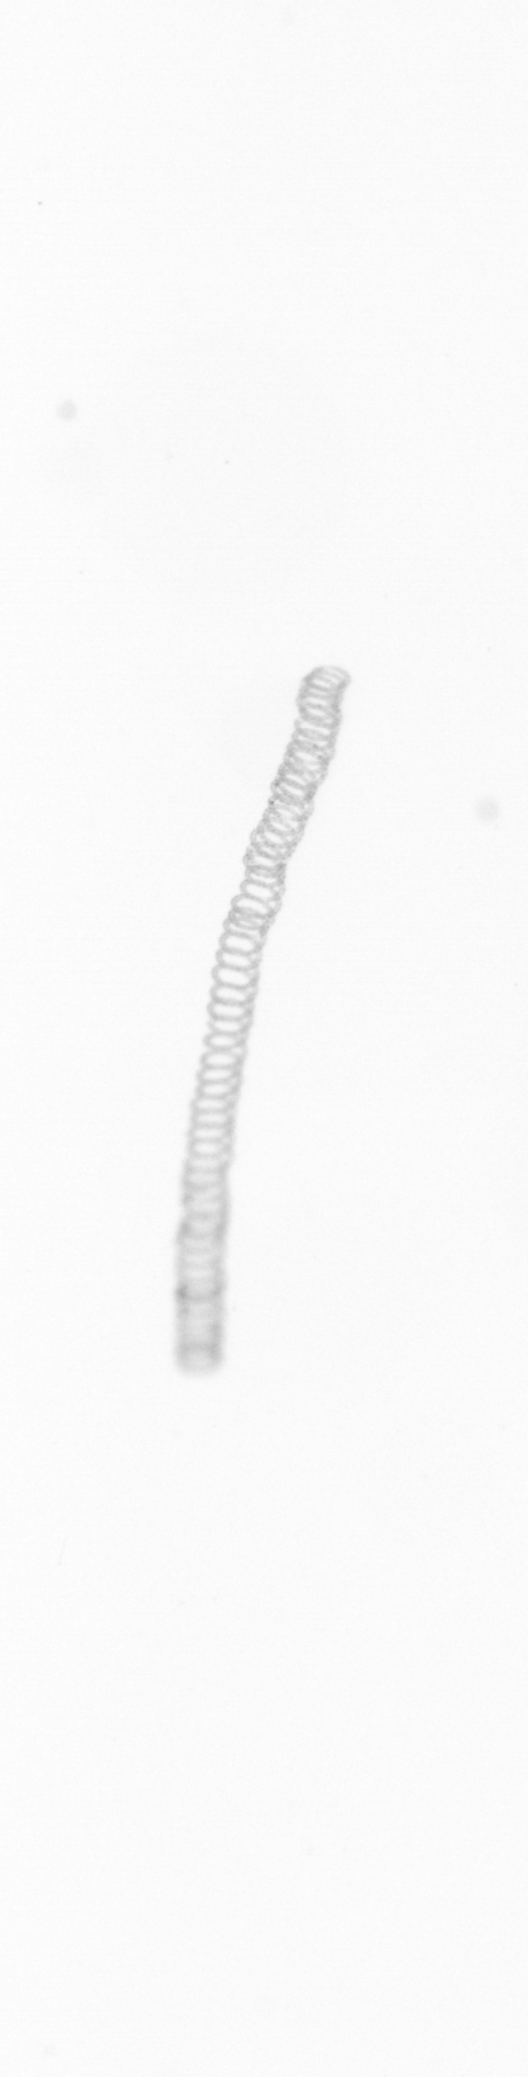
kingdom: Chromista
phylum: Ochrophyta
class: Bacillariophyceae
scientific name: Bacillariophyceae
